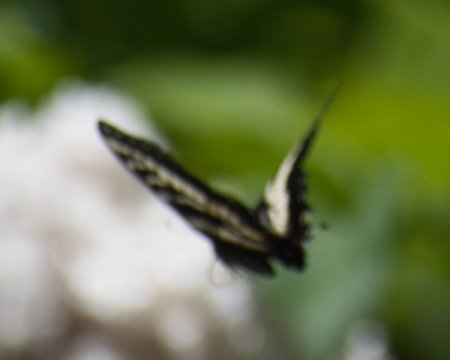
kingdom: Animalia
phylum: Arthropoda
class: Insecta
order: Lepidoptera
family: Papilionidae
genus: Pterourus
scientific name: Pterourus eurymedon
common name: Pale Swallowtail
